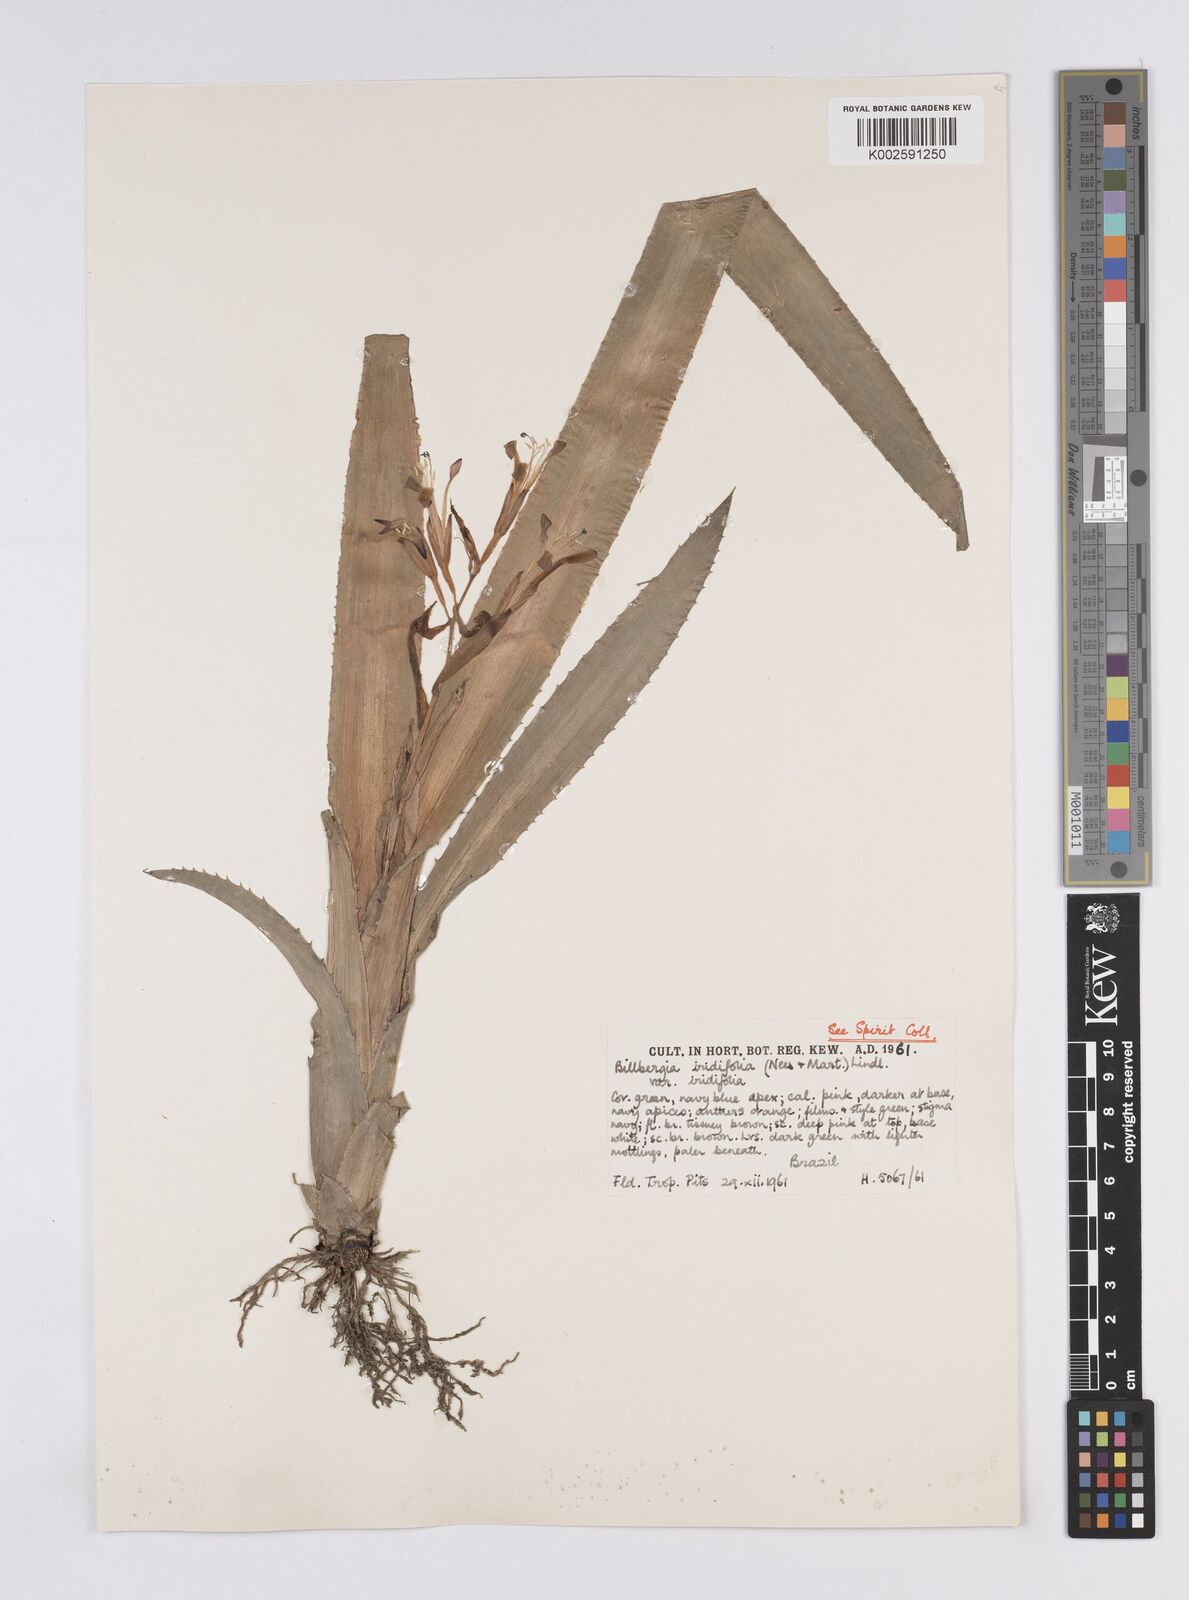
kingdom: Plantae
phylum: Tracheophyta
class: Liliopsida
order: Poales
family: Bromeliaceae
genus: Billbergia
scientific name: Billbergia
